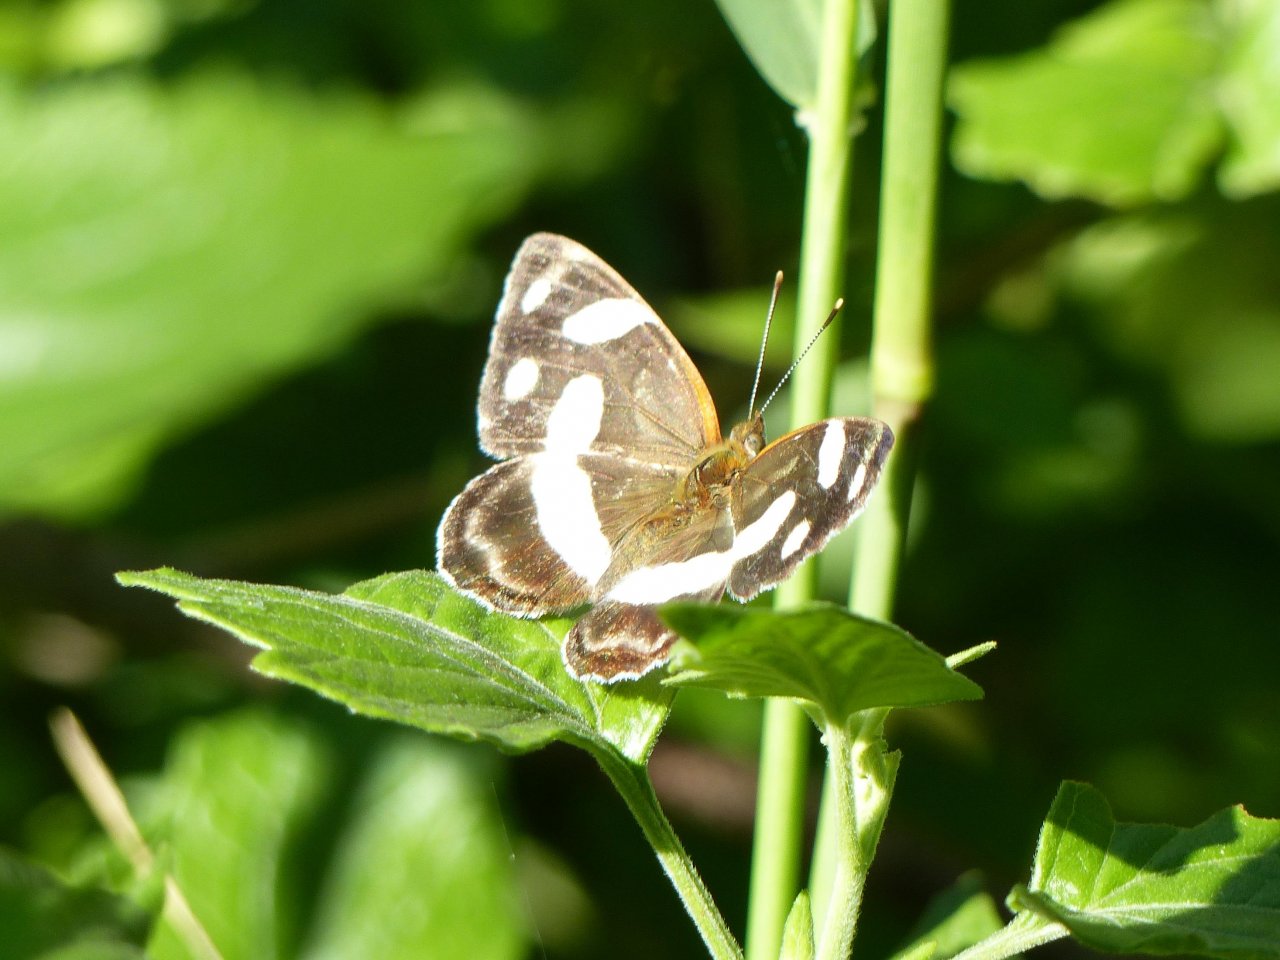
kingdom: Animalia
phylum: Arthropoda
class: Insecta
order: Lepidoptera
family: Nymphalidae
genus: Dynamine
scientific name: Dynamine dyonis
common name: Blue-eyed Sailor
